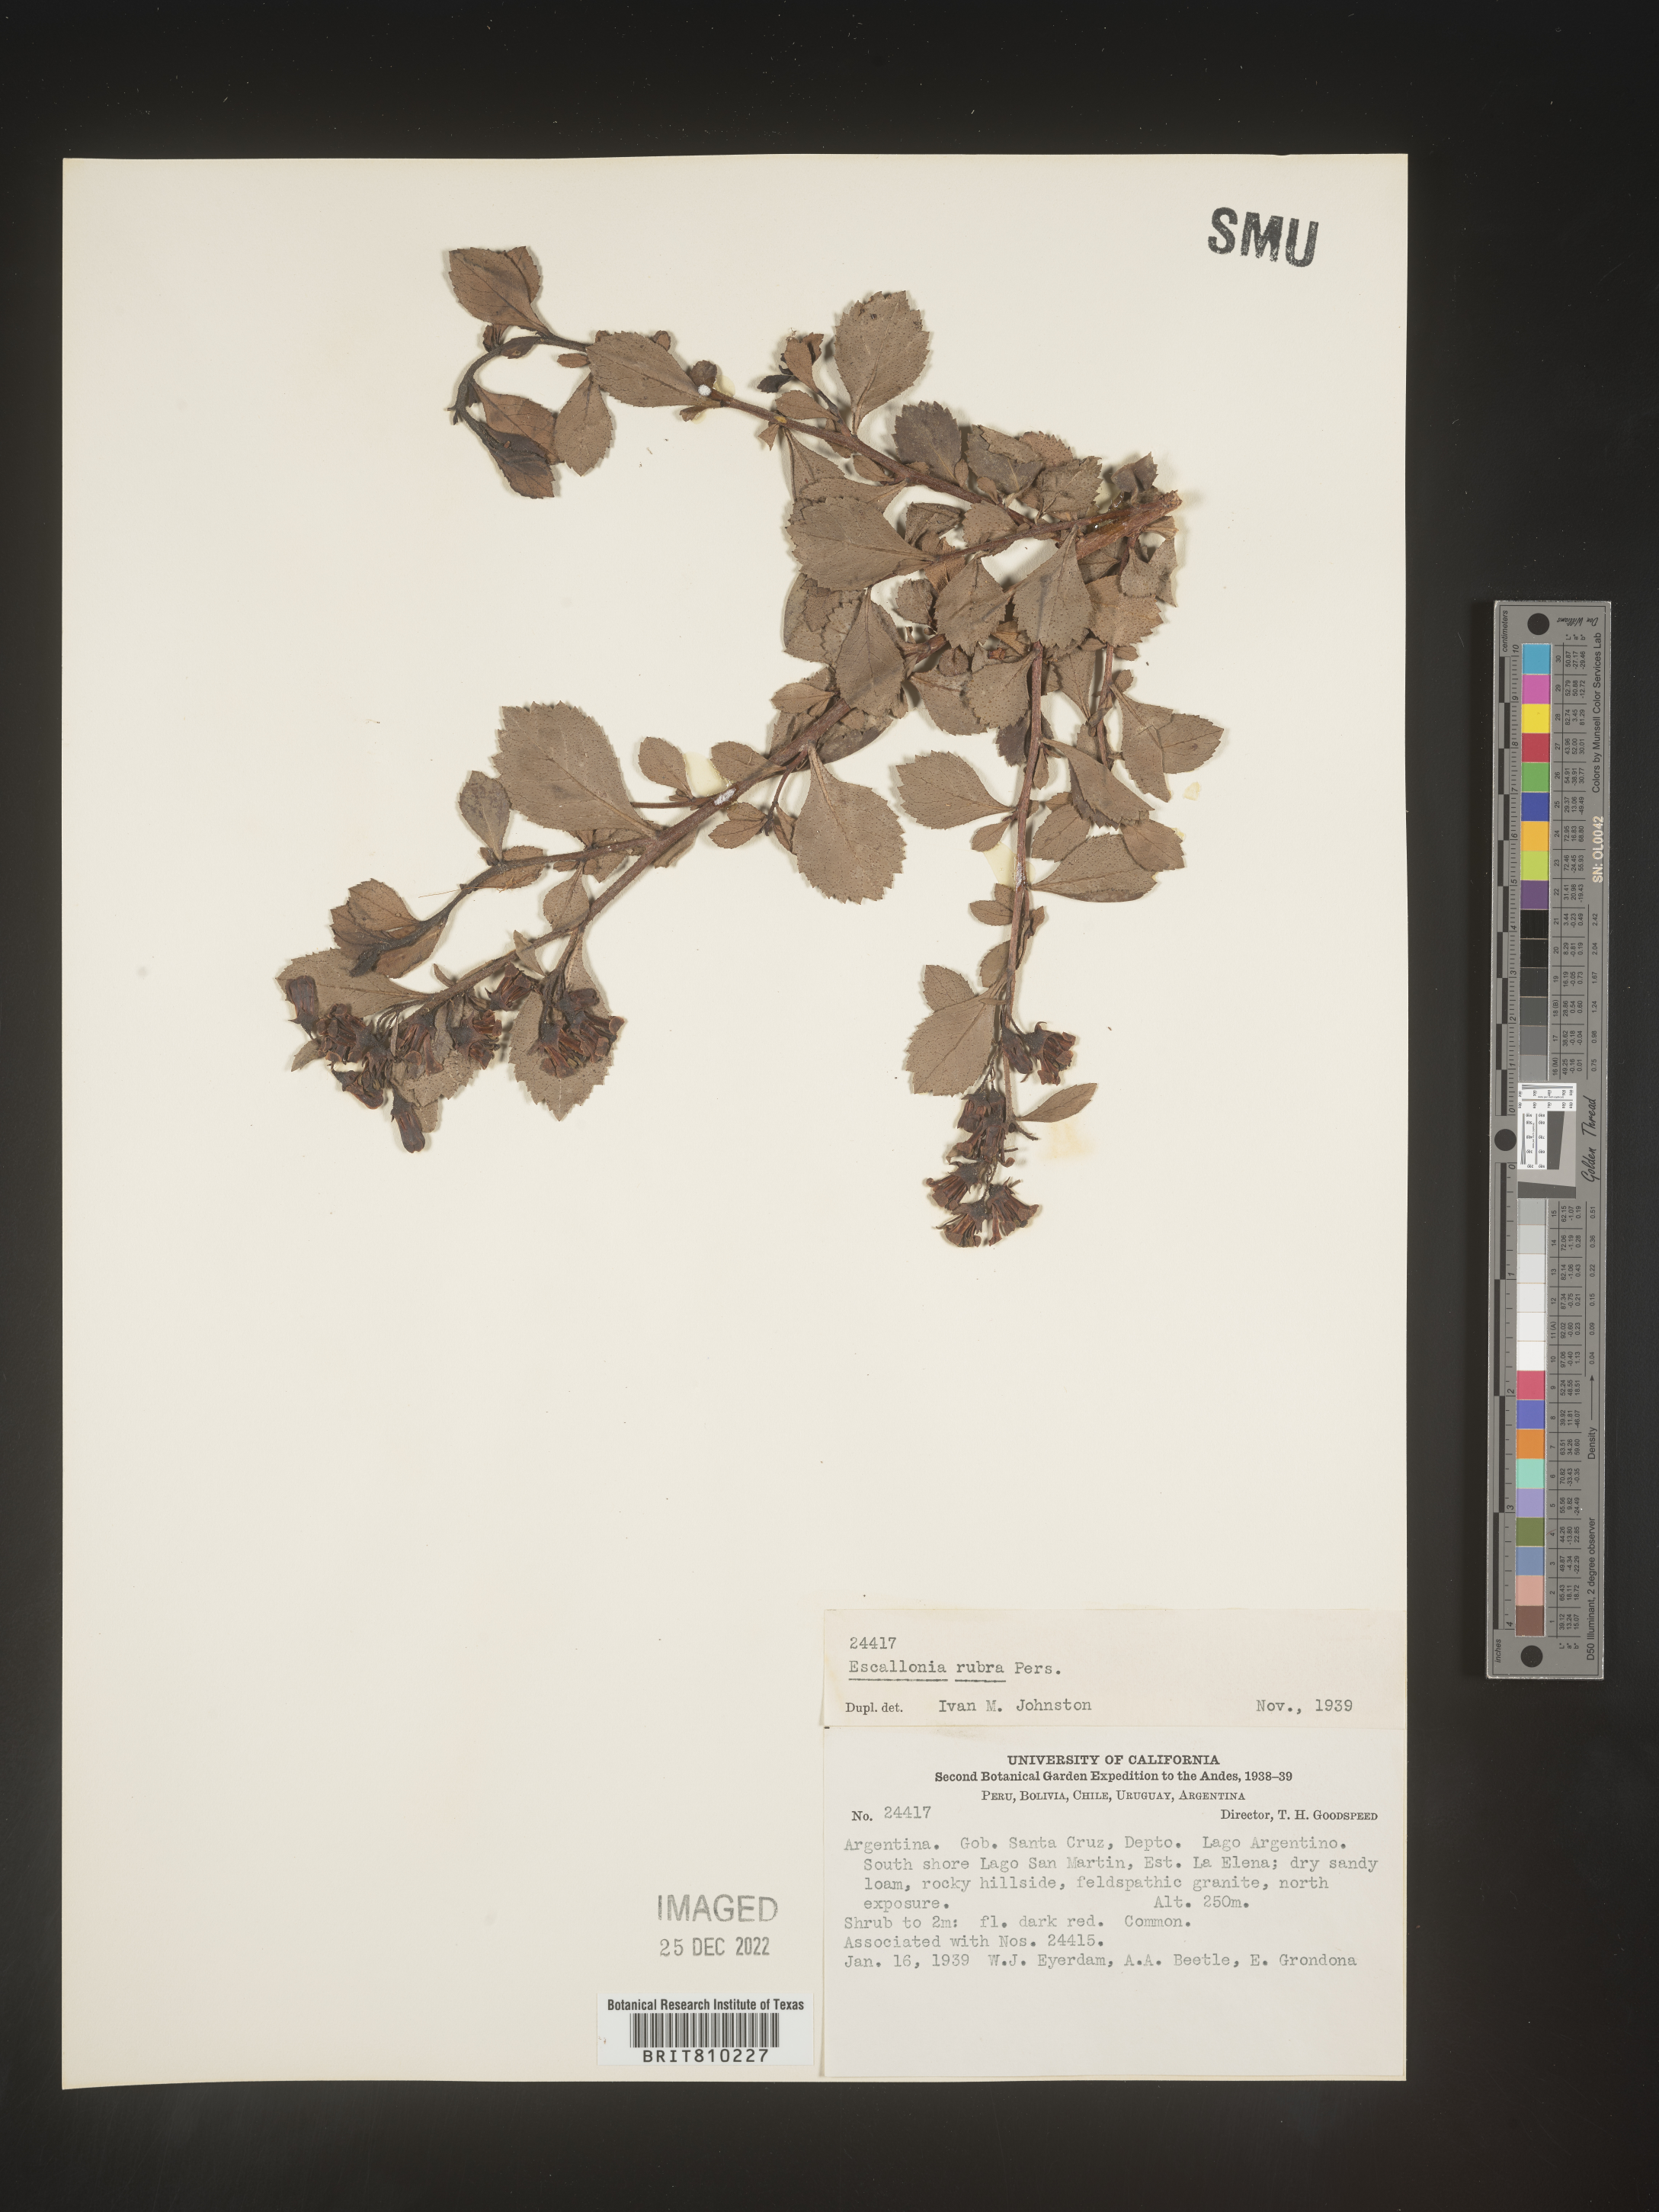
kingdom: Plantae
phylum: Tracheophyta
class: Magnoliopsida
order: Escalloniales
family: Escalloniaceae
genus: Escallonia
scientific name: Escallonia
